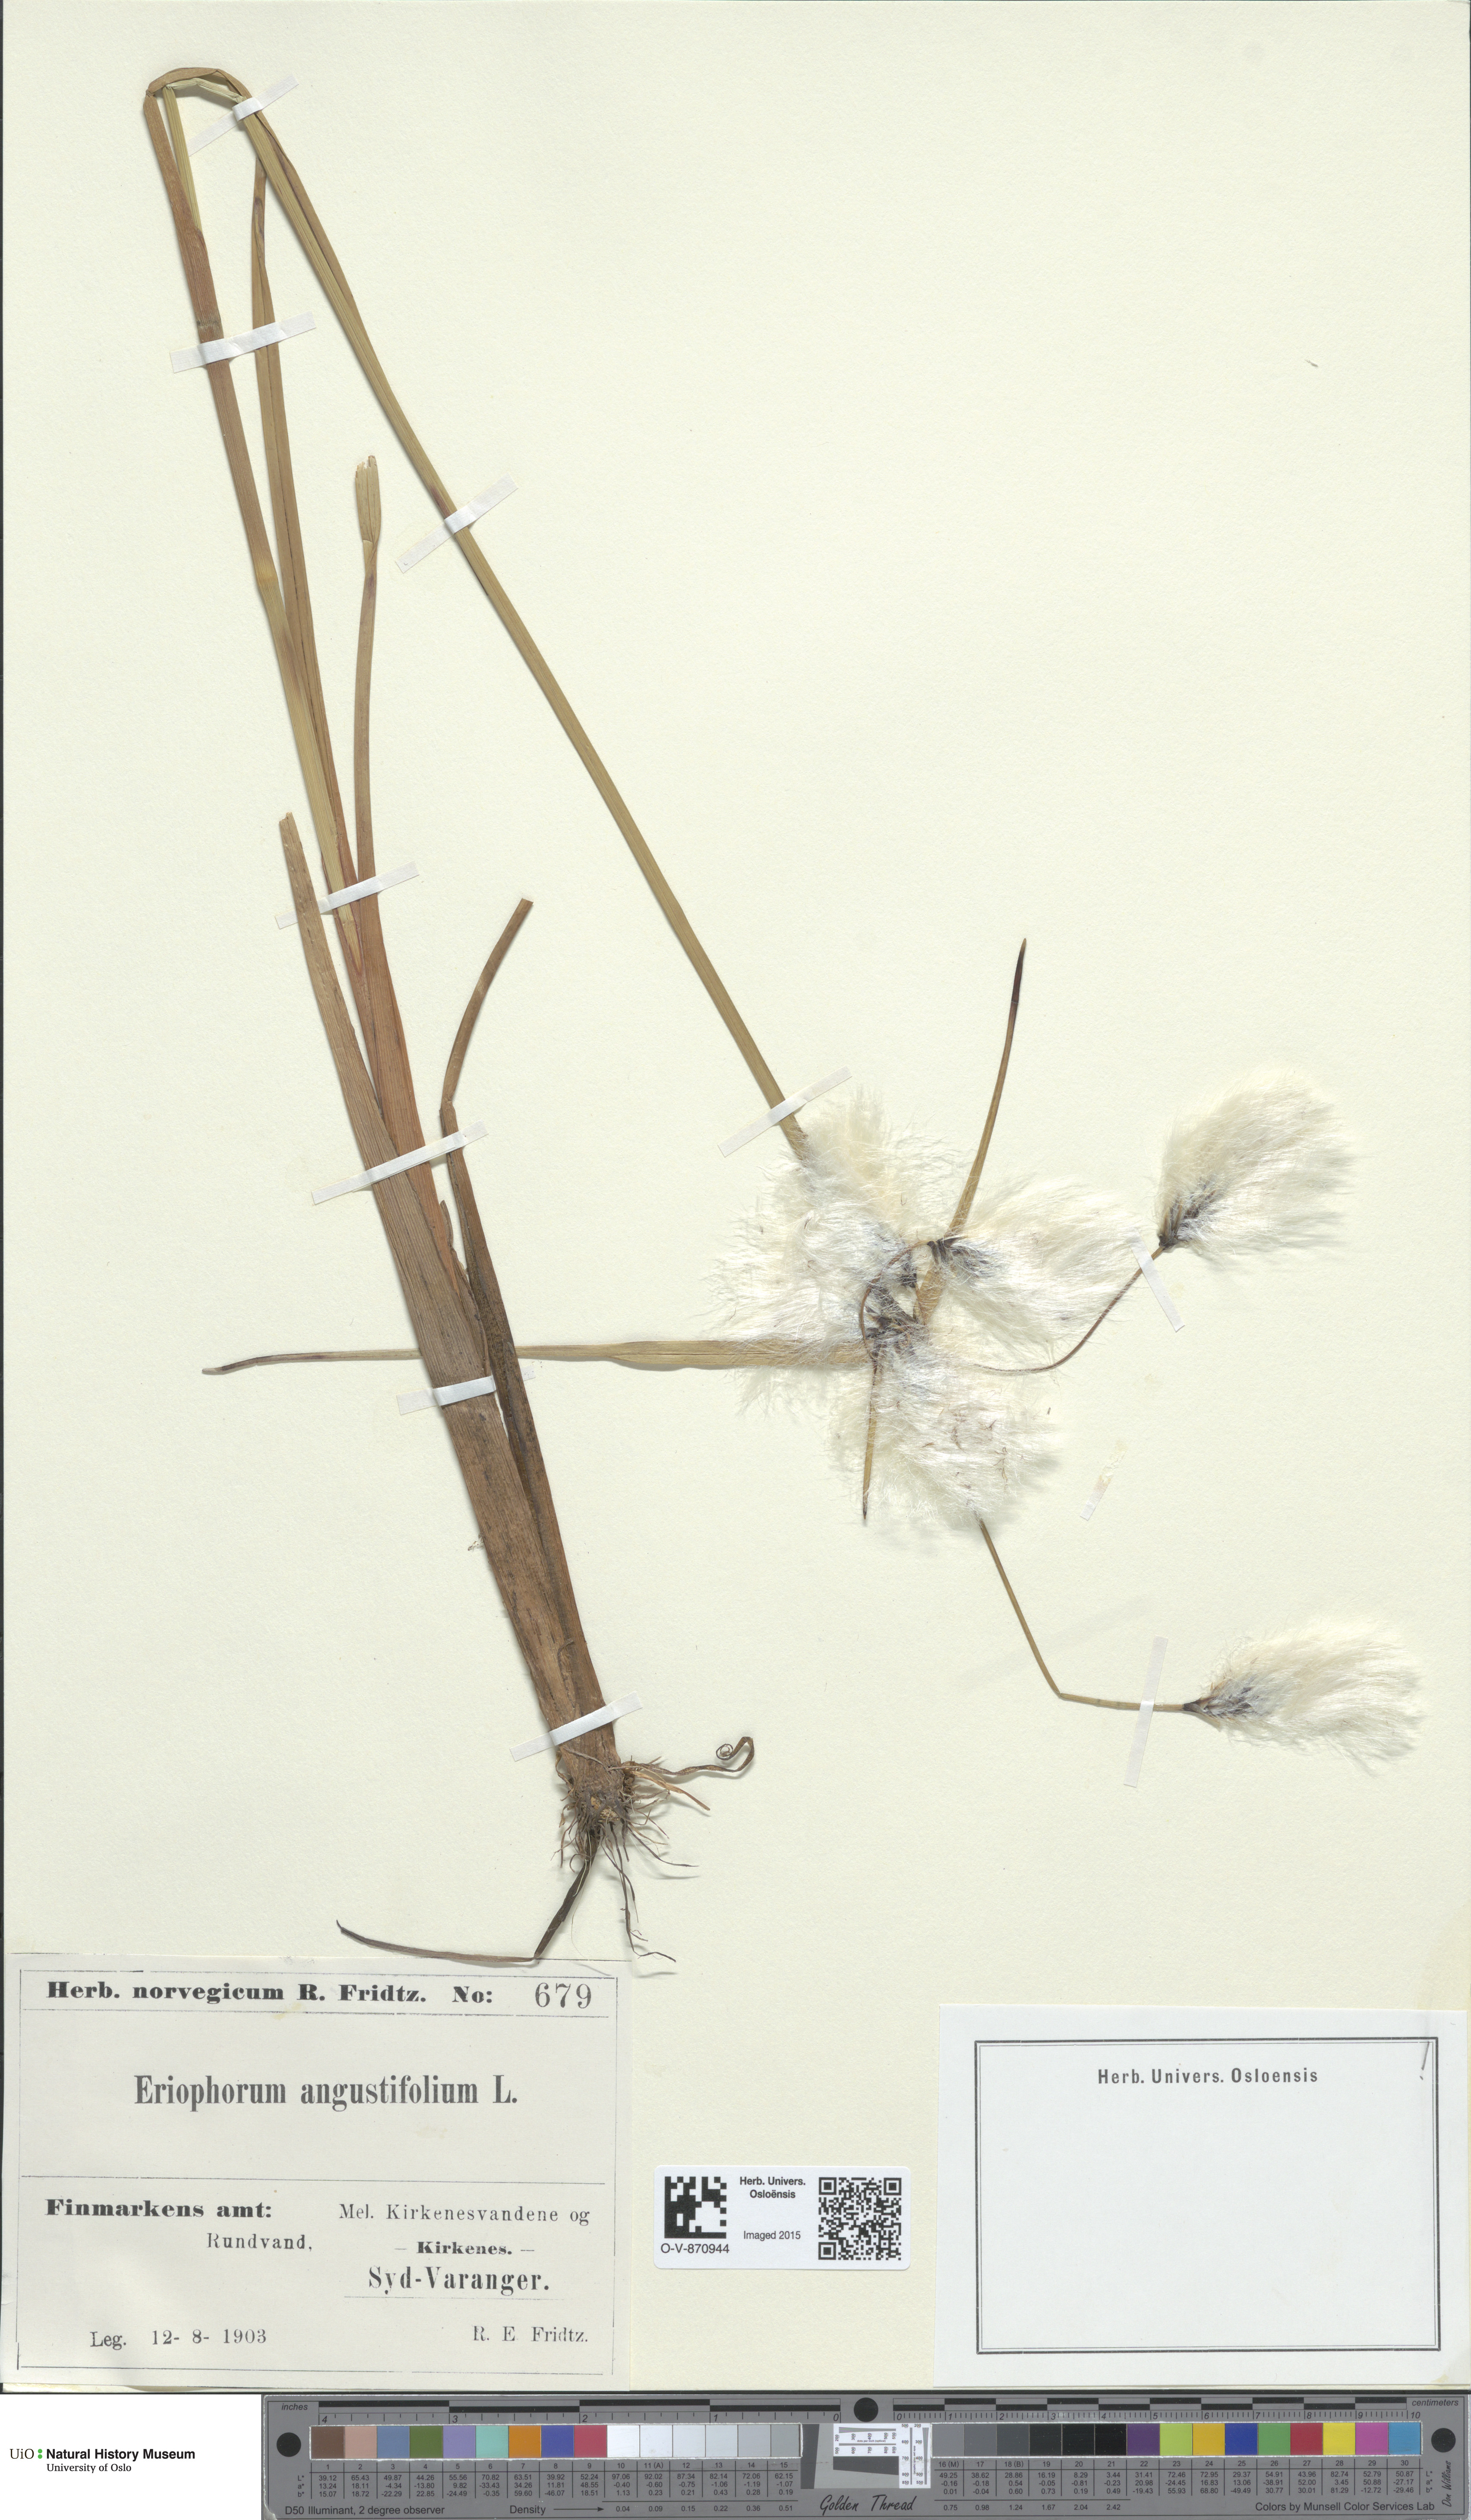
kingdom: Plantae
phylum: Tracheophyta
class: Liliopsida
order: Poales
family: Cyperaceae
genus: Eriophorum
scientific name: Eriophorum angustifolium
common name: Common cottongrass
